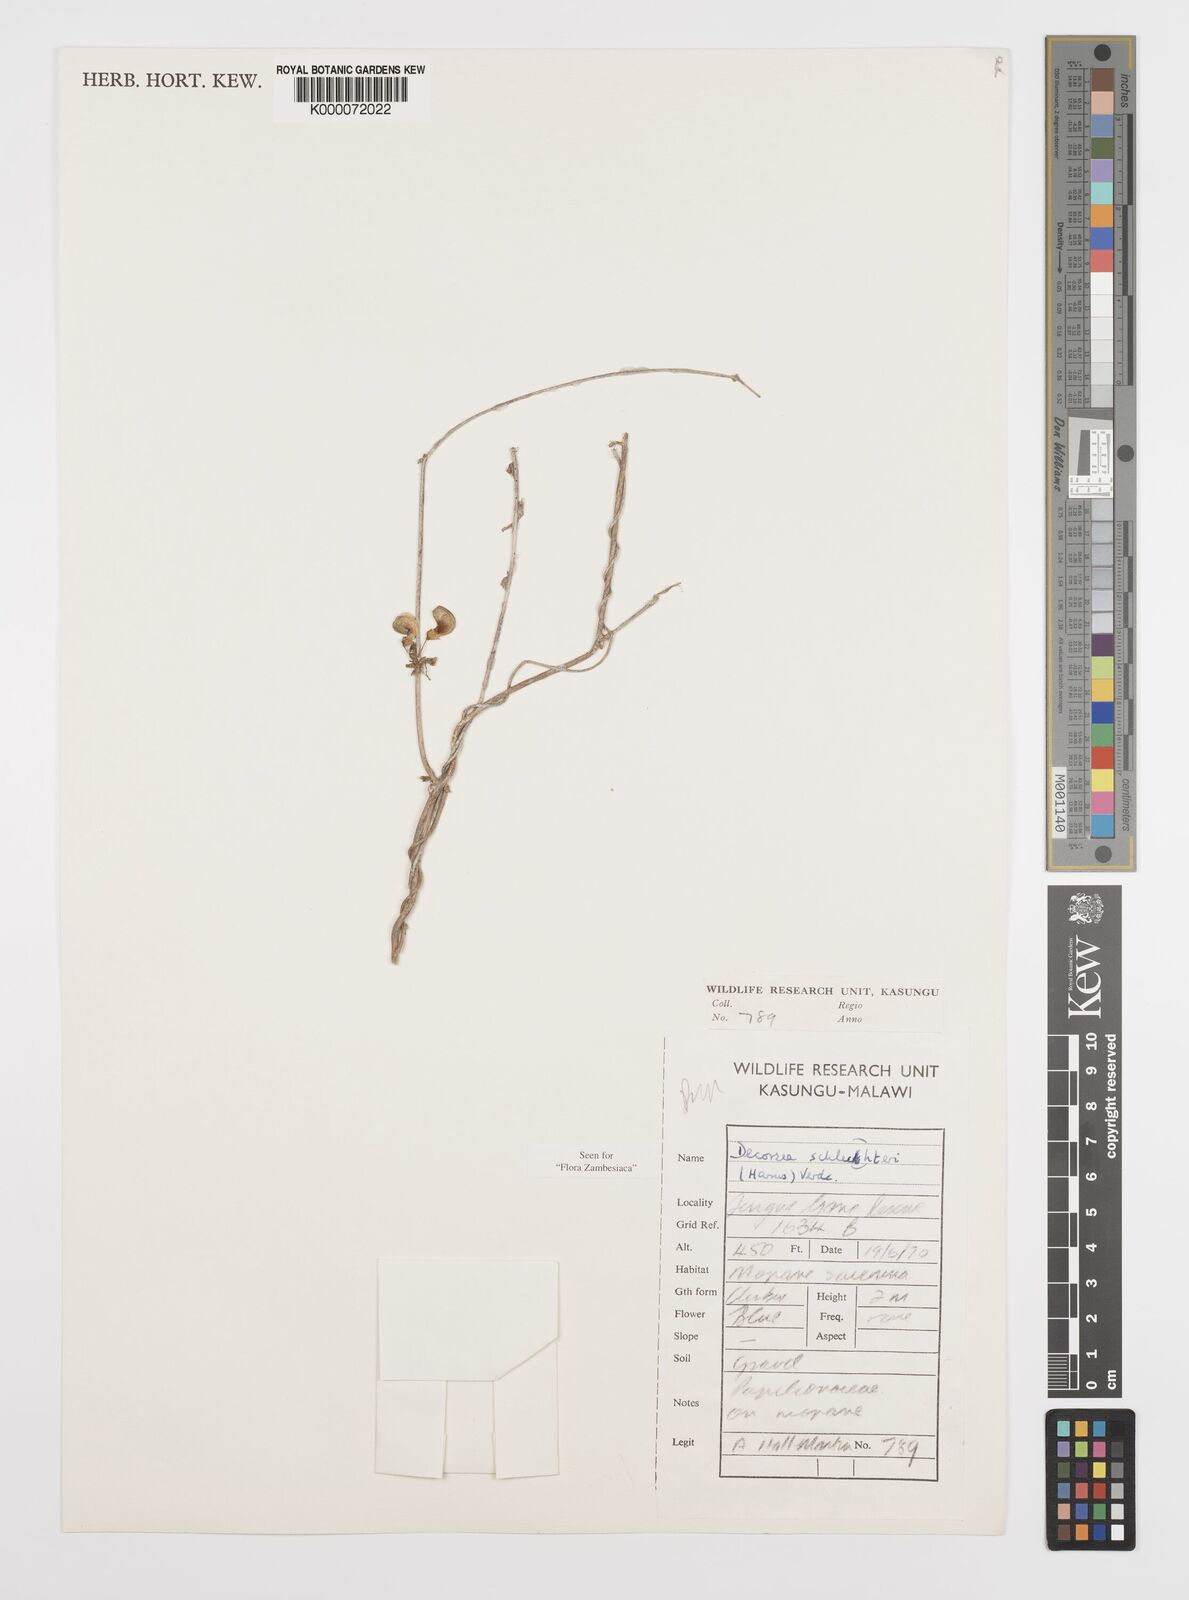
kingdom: Plantae
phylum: Tracheophyta
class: Magnoliopsida
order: Fabales
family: Fabaceae
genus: Decorsea
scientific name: Decorsea schlechteri
